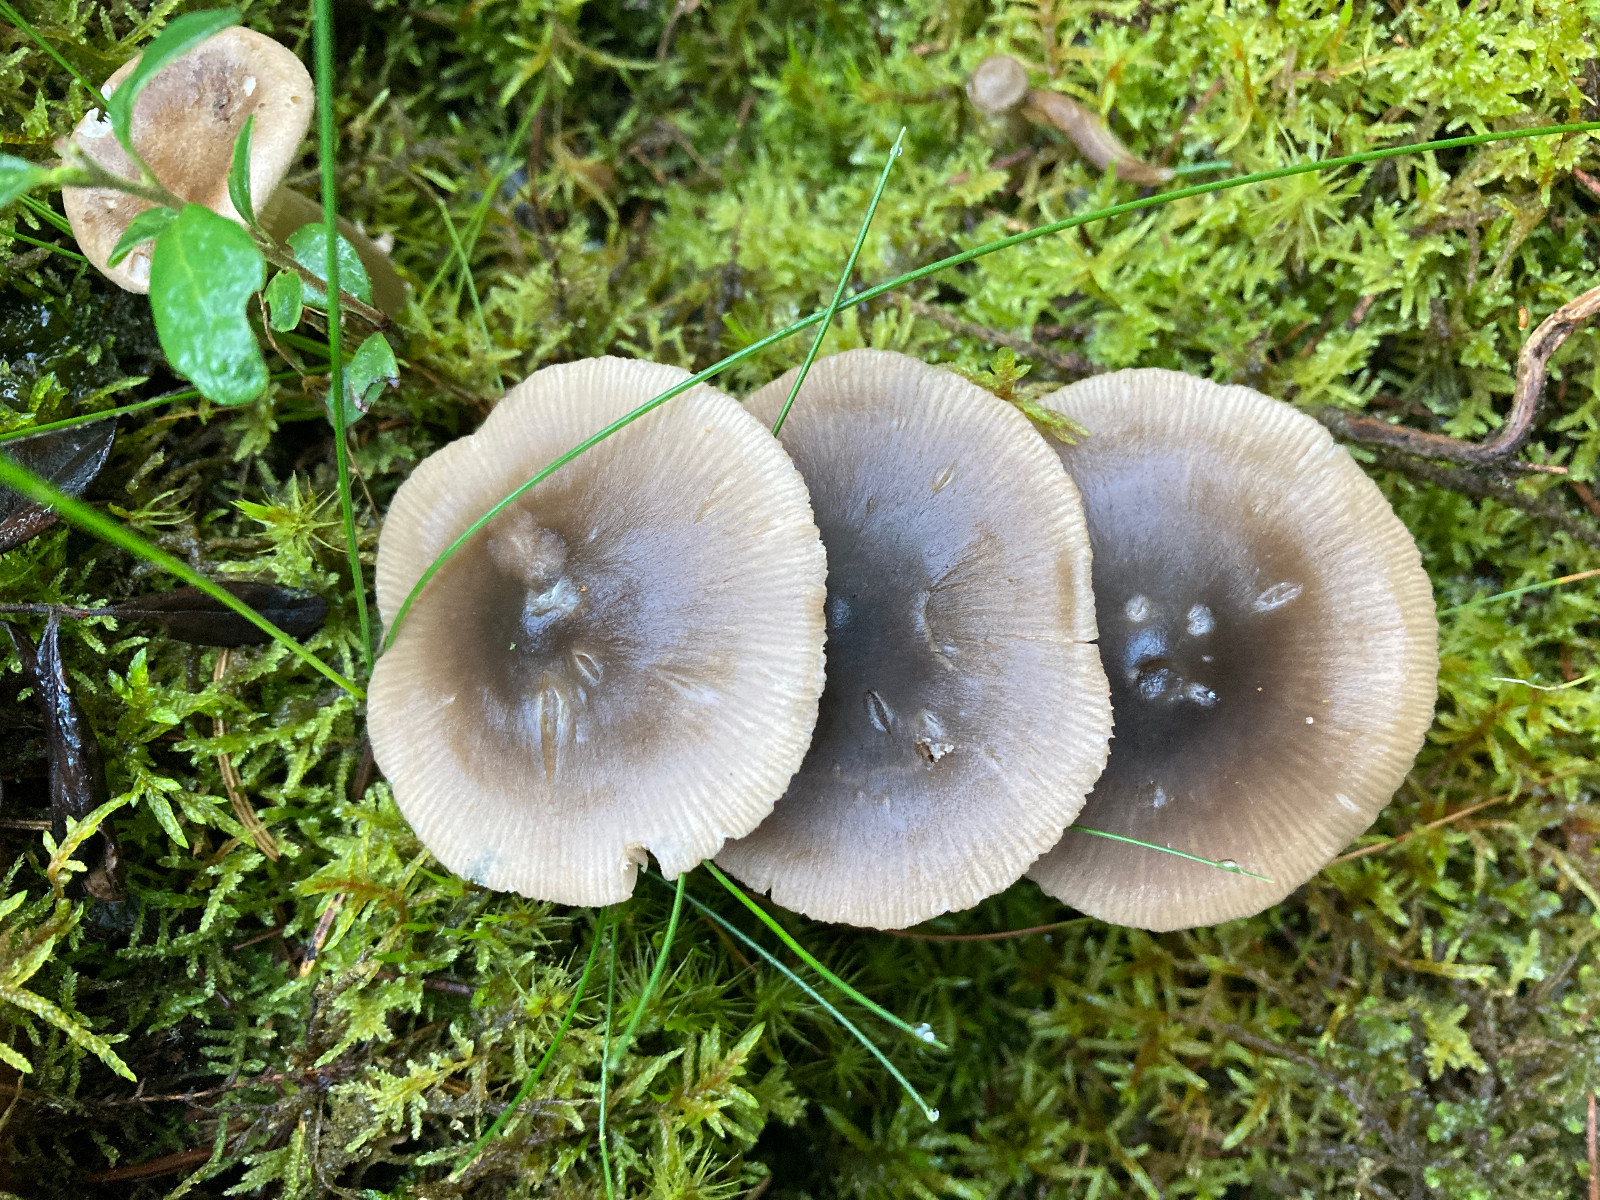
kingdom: Fungi
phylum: Basidiomycota
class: Agaricomycetes
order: Agaricales
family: Entolomataceae
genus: Entocybe
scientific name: Entocybe turbida
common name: plantage-rødblad
